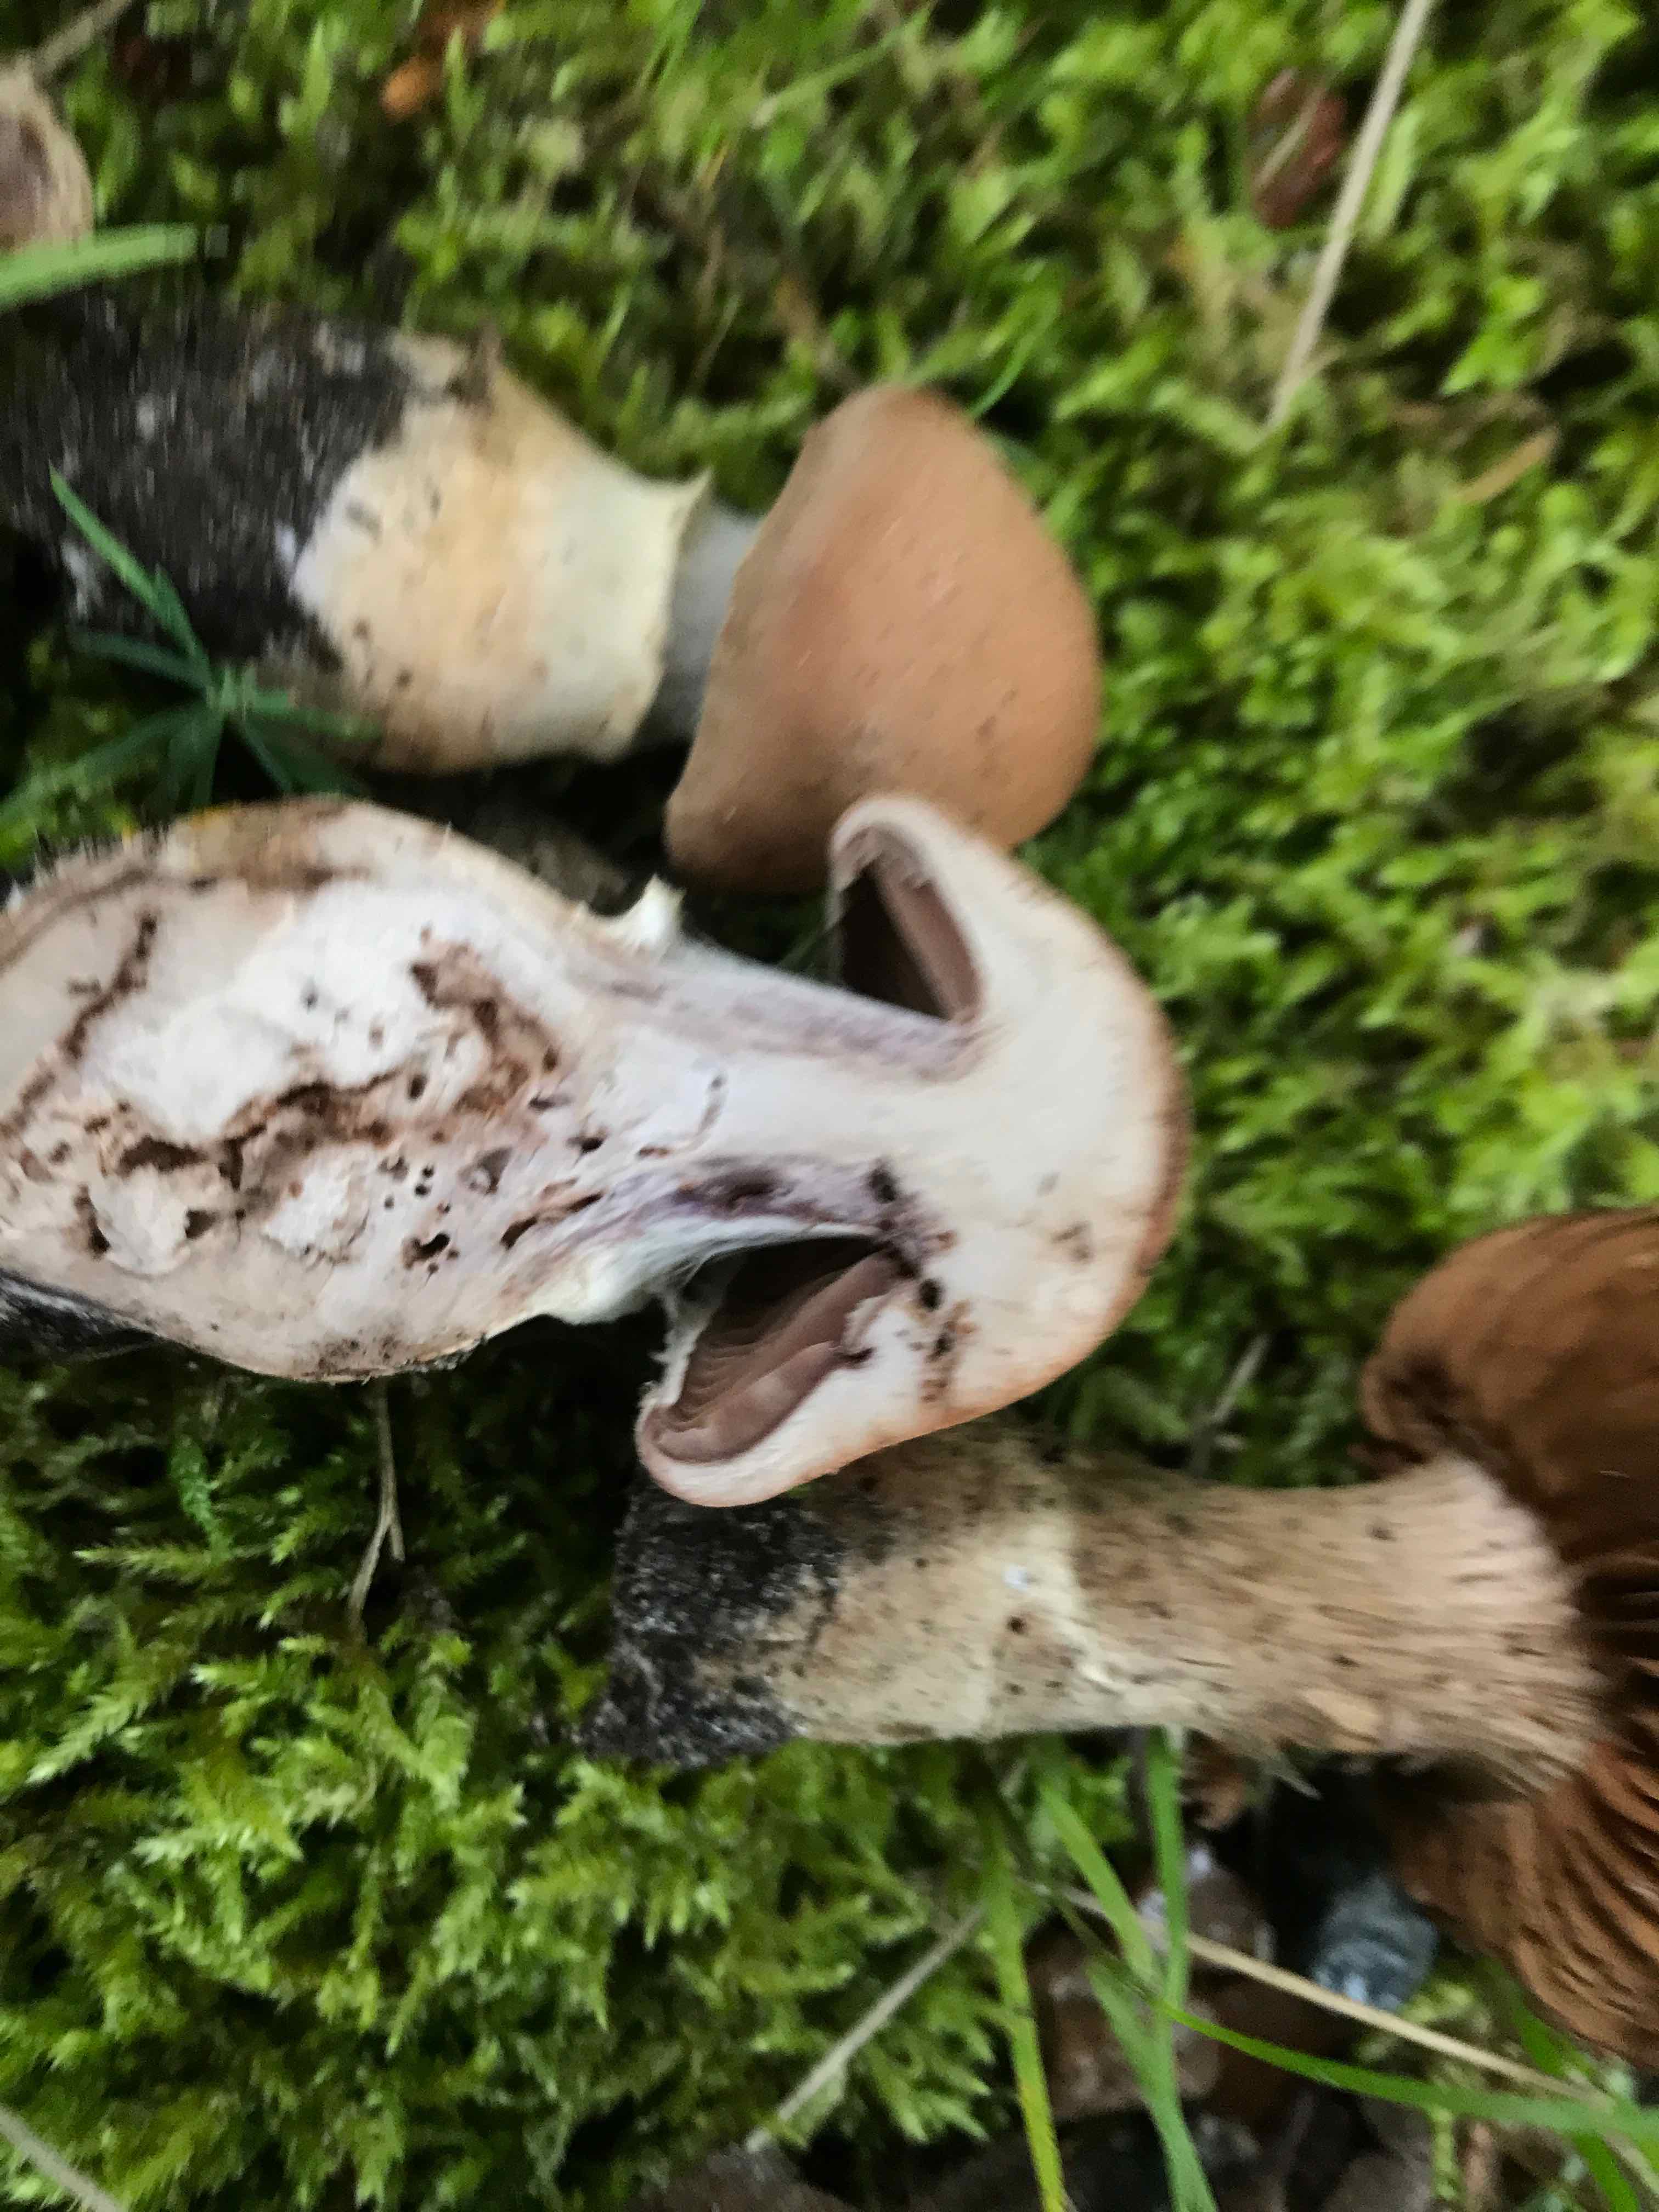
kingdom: Fungi
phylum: Basidiomycota
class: Agaricomycetes
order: Agaricales
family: Cortinariaceae
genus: Cortinarius
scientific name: Cortinarius torvus
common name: champignonagtig slørhat
